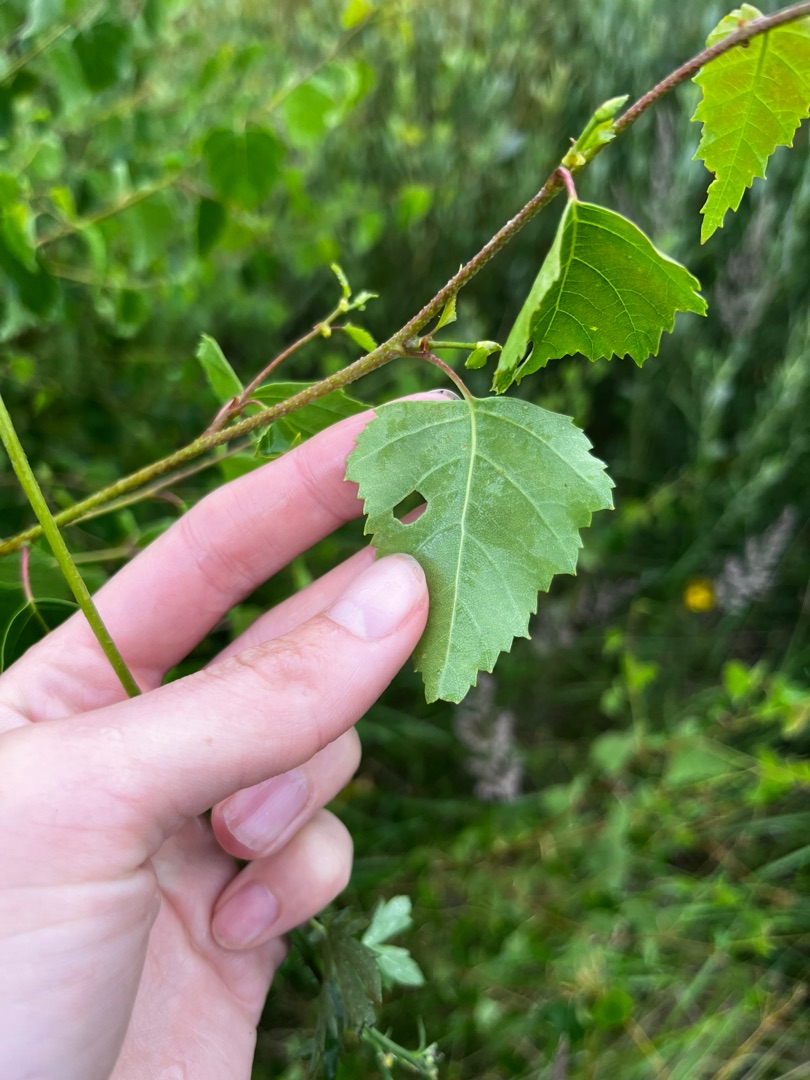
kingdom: Plantae
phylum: Tracheophyta
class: Magnoliopsida
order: Fagales
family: Betulaceae
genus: Betula
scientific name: Betula pendula
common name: Vorte-birk
